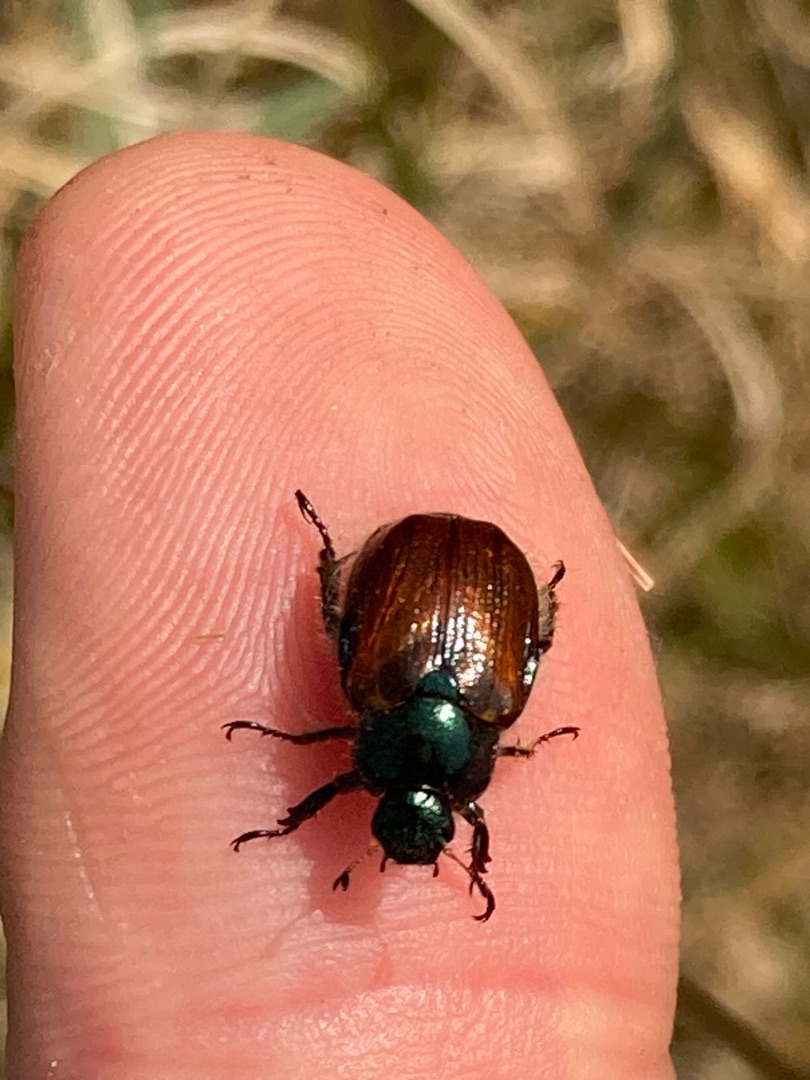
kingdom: Animalia
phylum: Arthropoda
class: Insecta
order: Coleoptera
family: Scarabaeidae
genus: Phyllopertha
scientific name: Phyllopertha horticola
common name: Gåsebille
